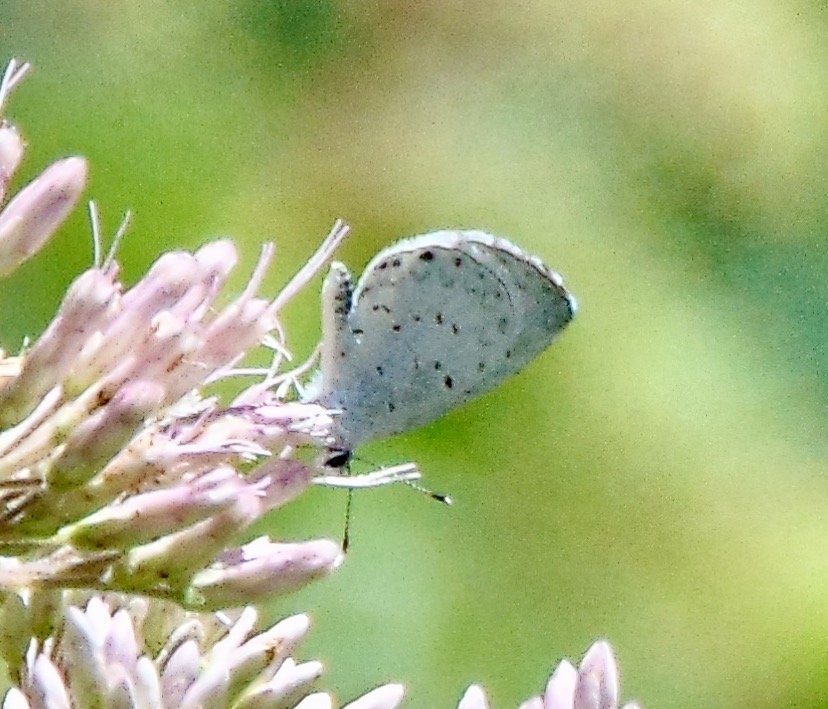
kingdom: Animalia
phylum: Arthropoda
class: Insecta
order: Lepidoptera
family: Lycaenidae
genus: Cyaniris
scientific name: Cyaniris neglecta
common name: Summer Azure
